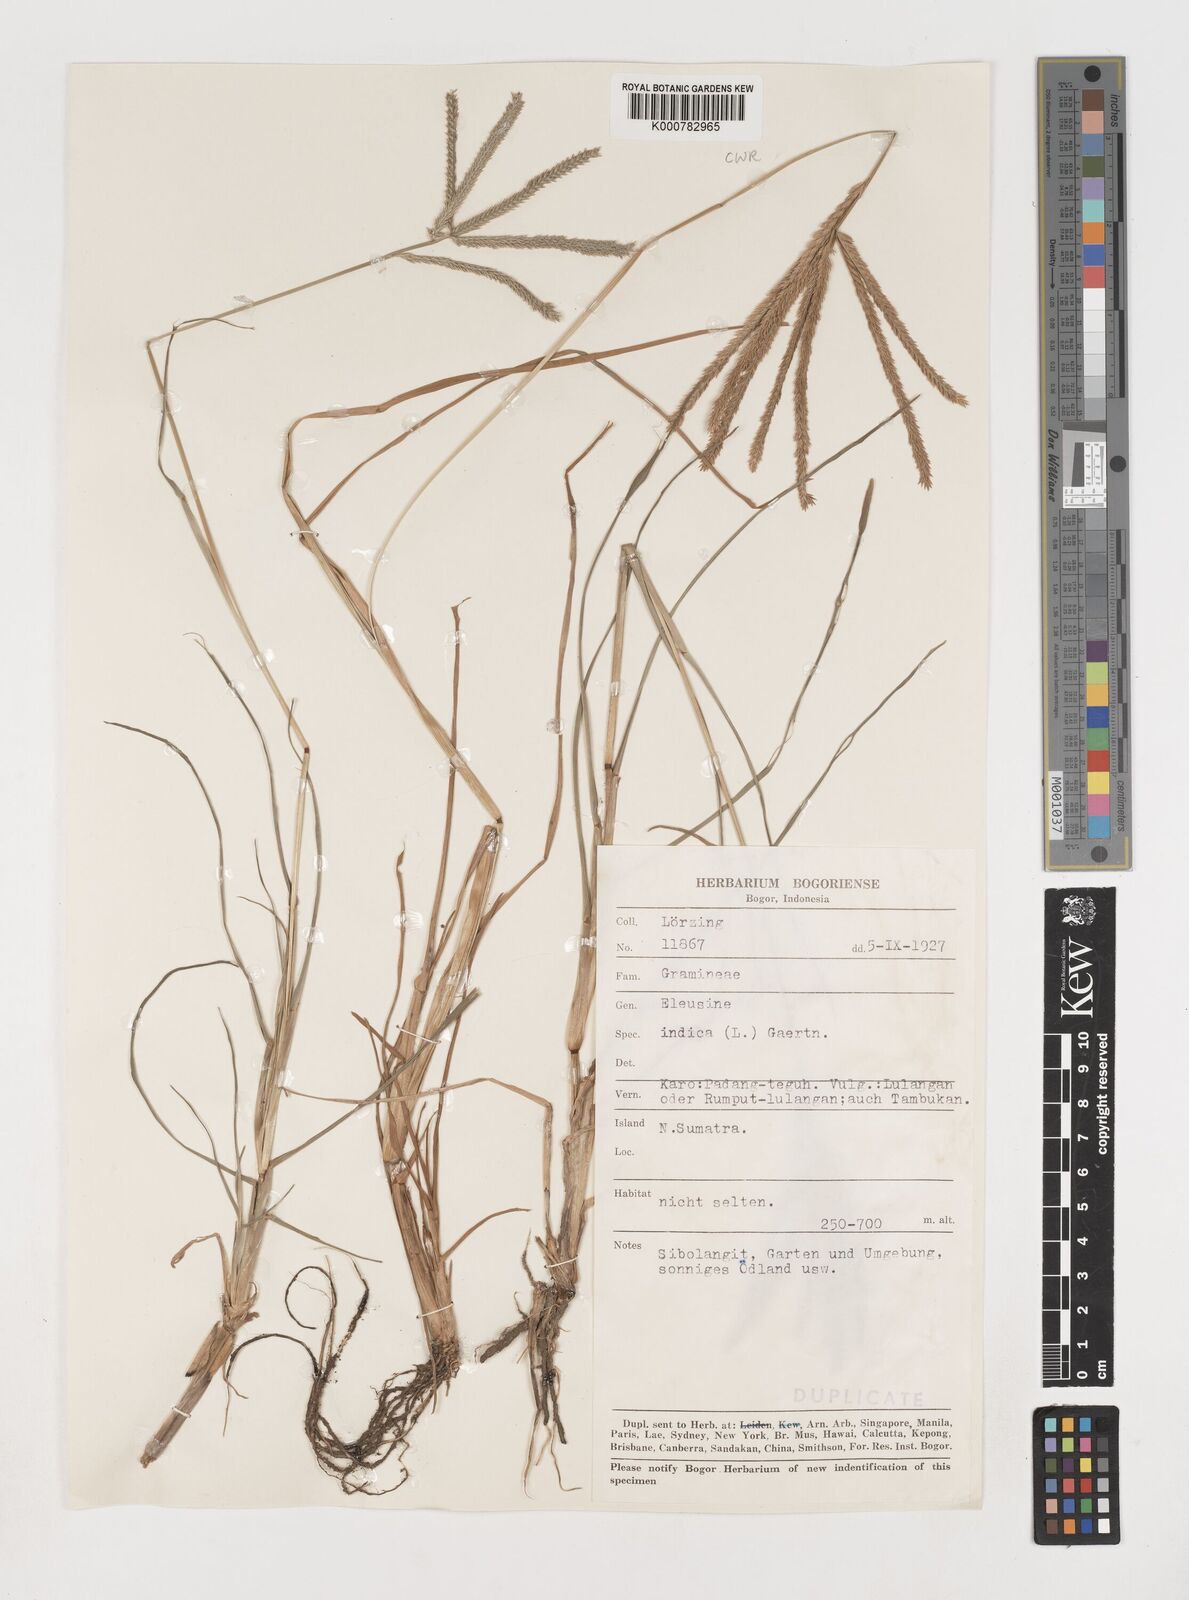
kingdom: Plantae
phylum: Tracheophyta
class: Liliopsida
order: Poales
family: Poaceae
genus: Eleusine
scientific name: Eleusine indica
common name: Yard-grass
